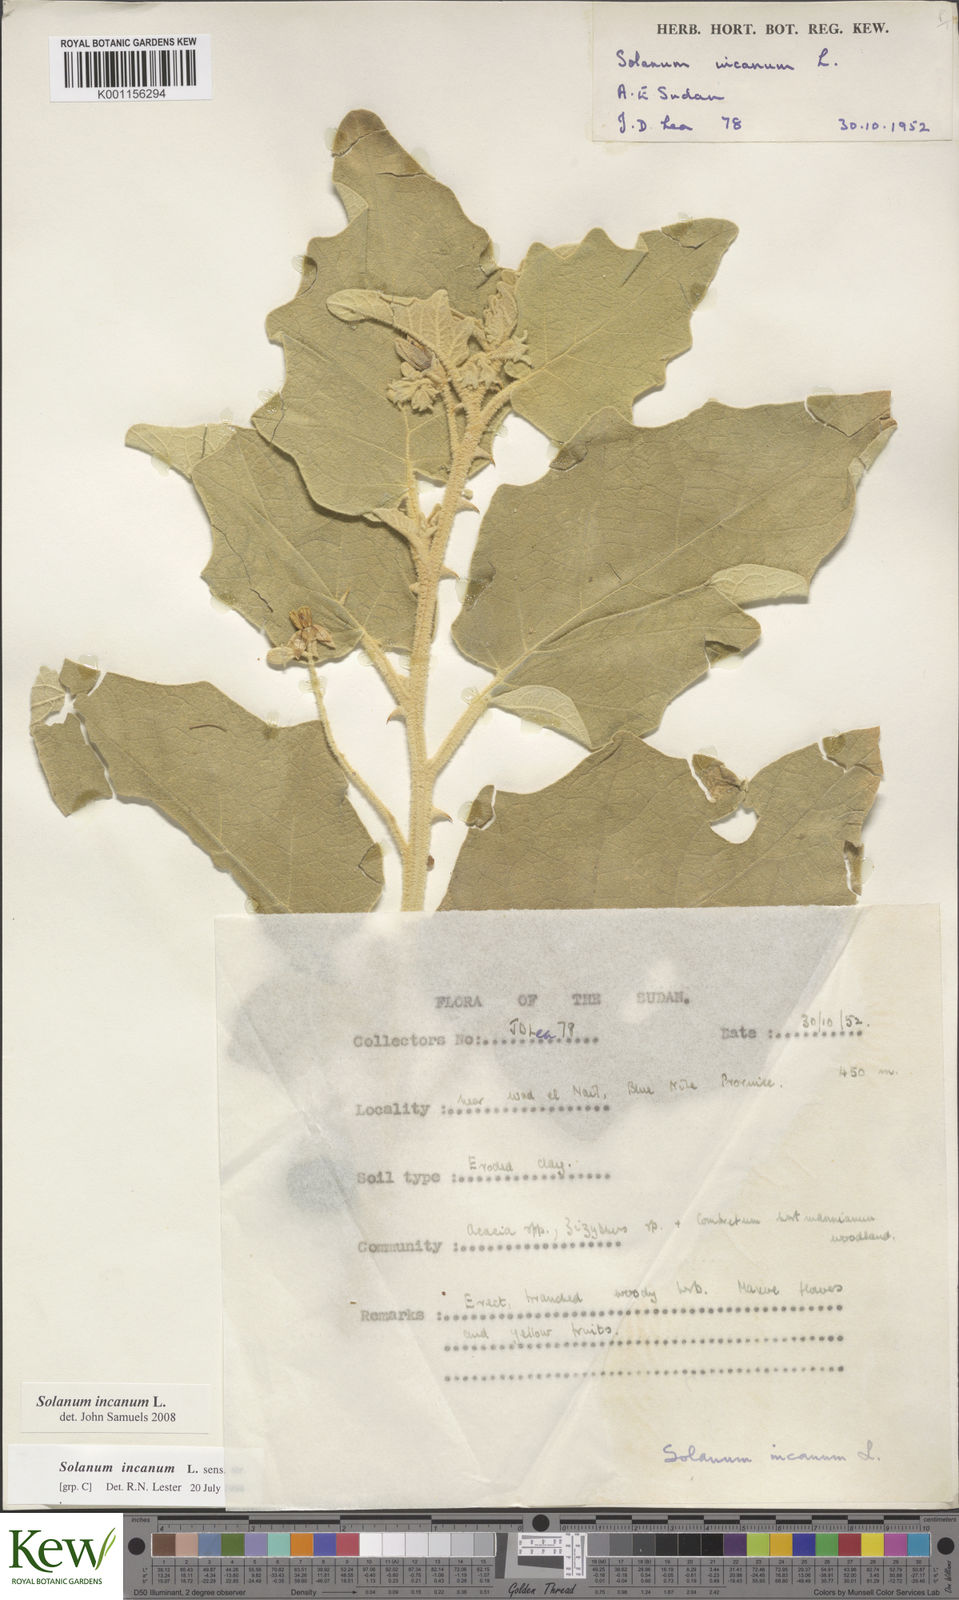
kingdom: Plantae
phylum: Tracheophyta
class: Magnoliopsida
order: Solanales
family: Solanaceae
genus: Solanum
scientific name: Solanum incanum
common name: Bitter apple
